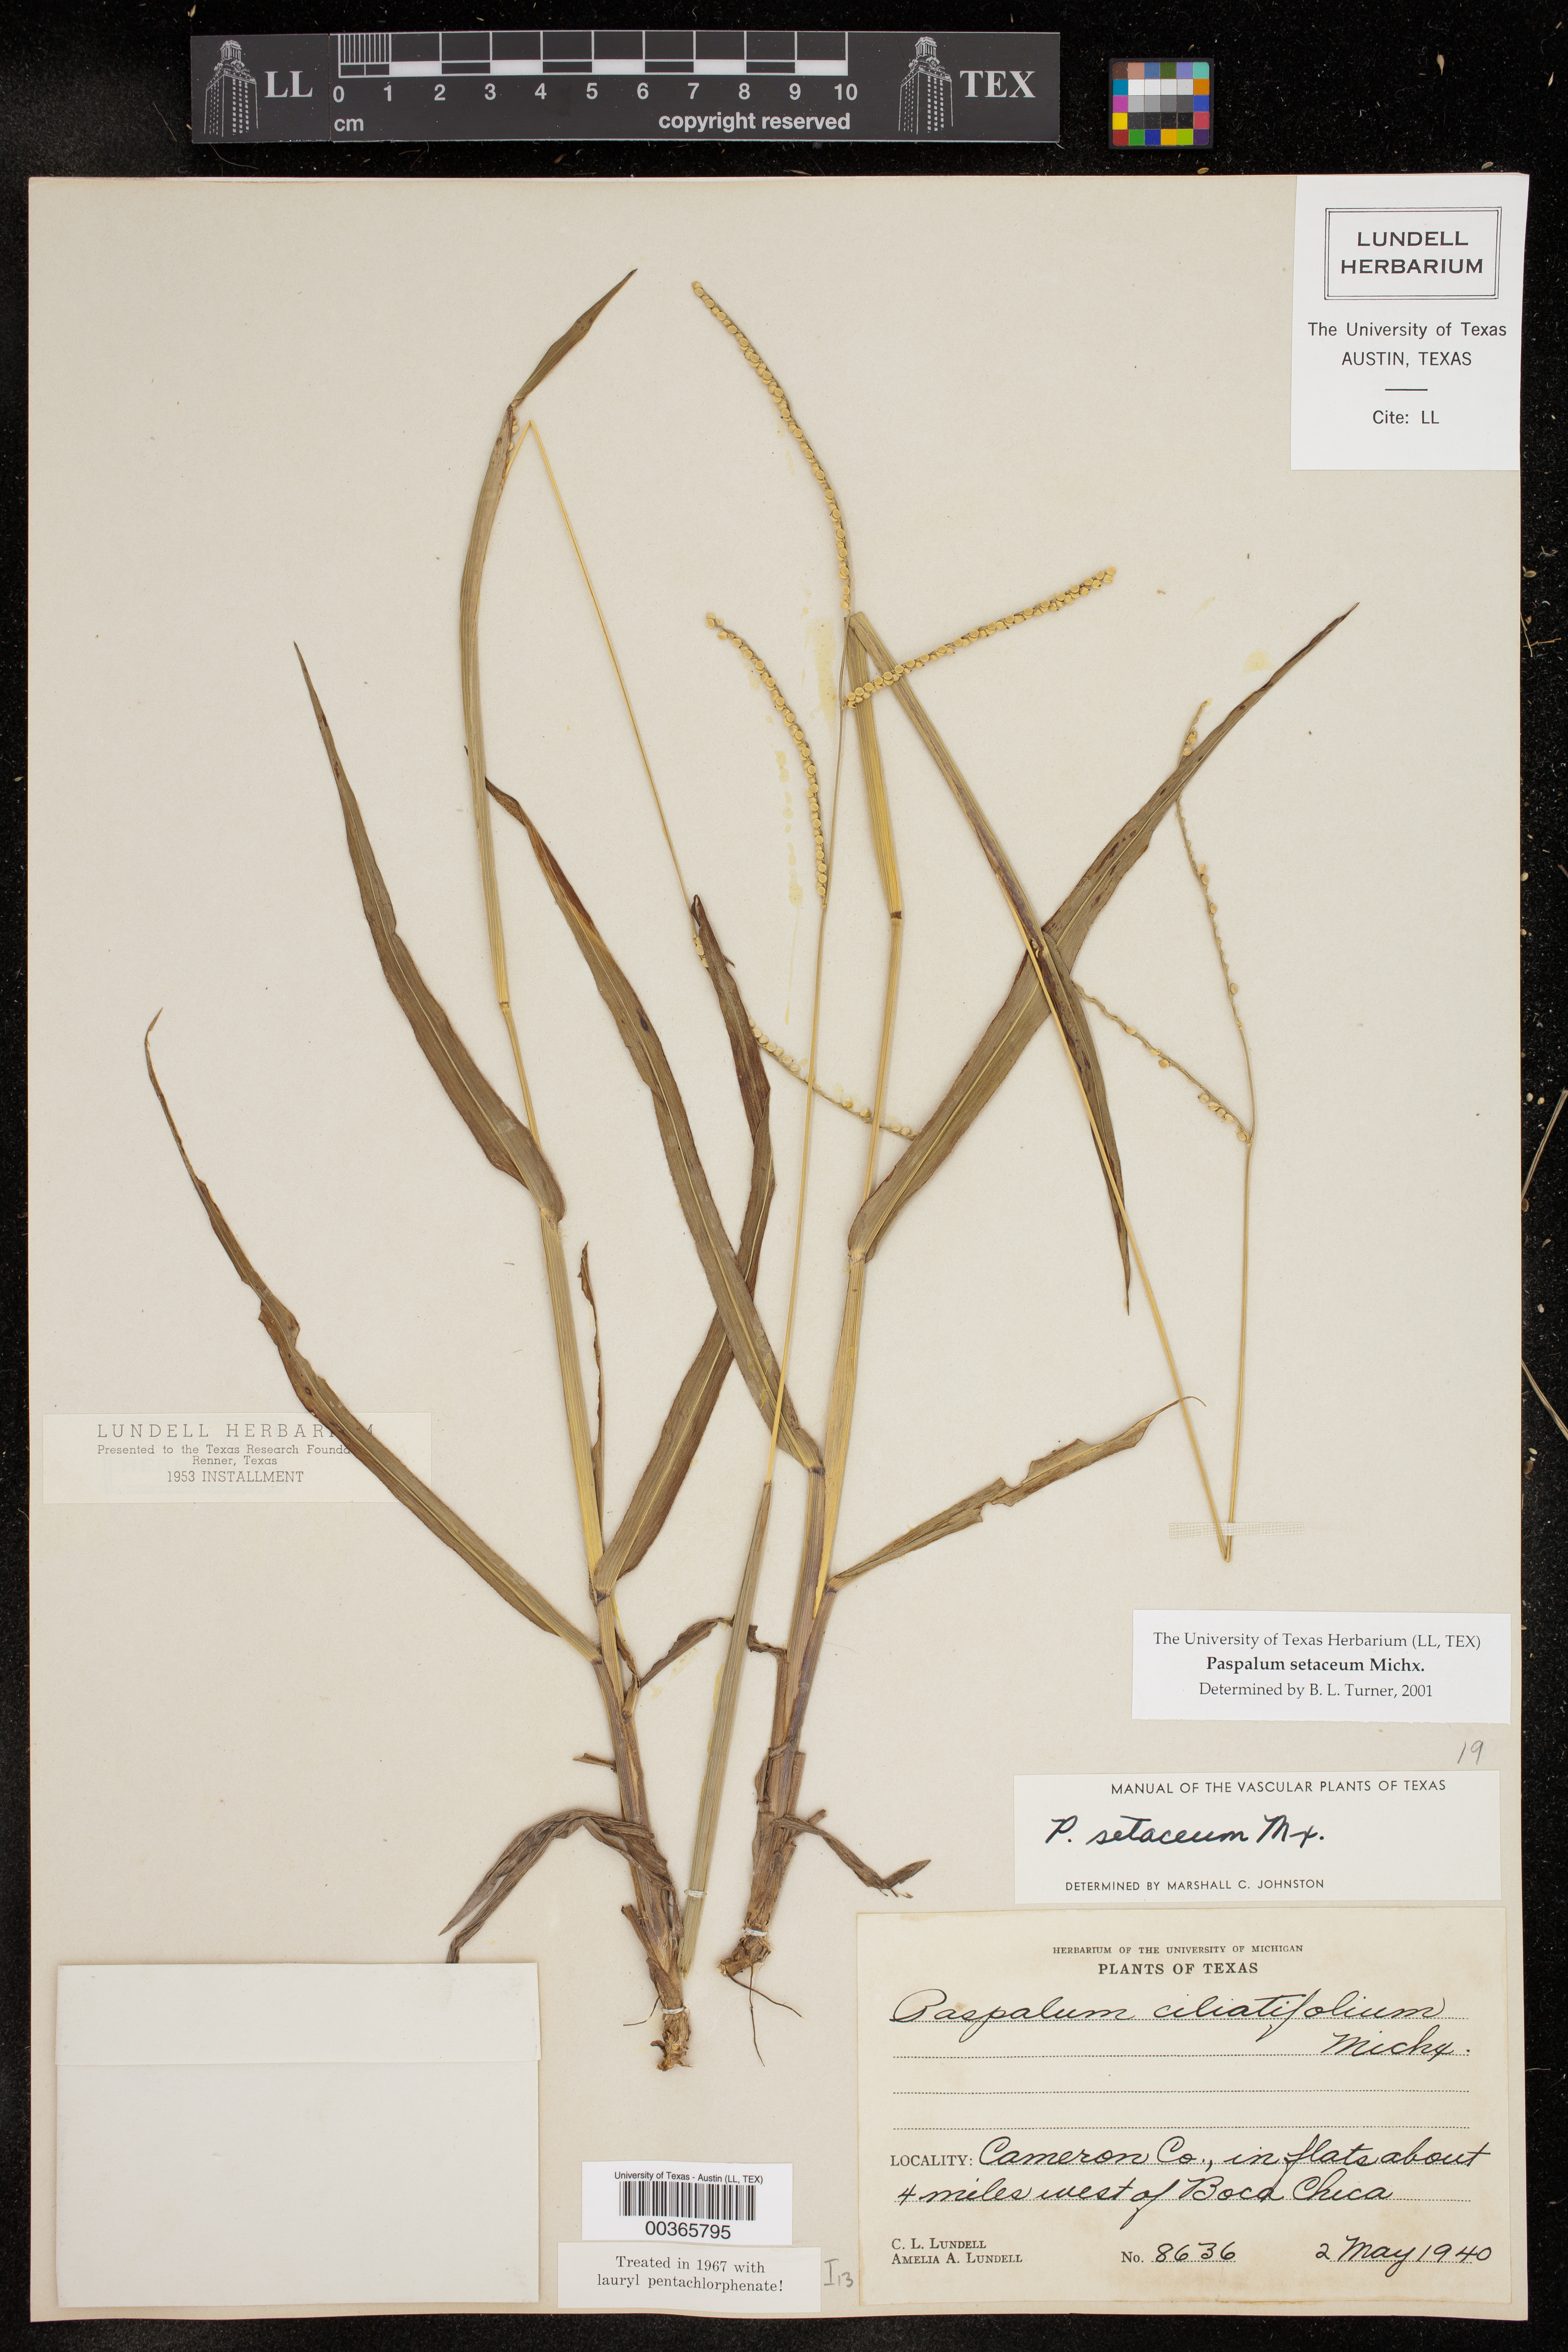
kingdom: Plantae
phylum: Tracheophyta
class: Liliopsida
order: Poales
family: Poaceae
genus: Paspalum
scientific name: Paspalum setaceum
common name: Slender paspalum
